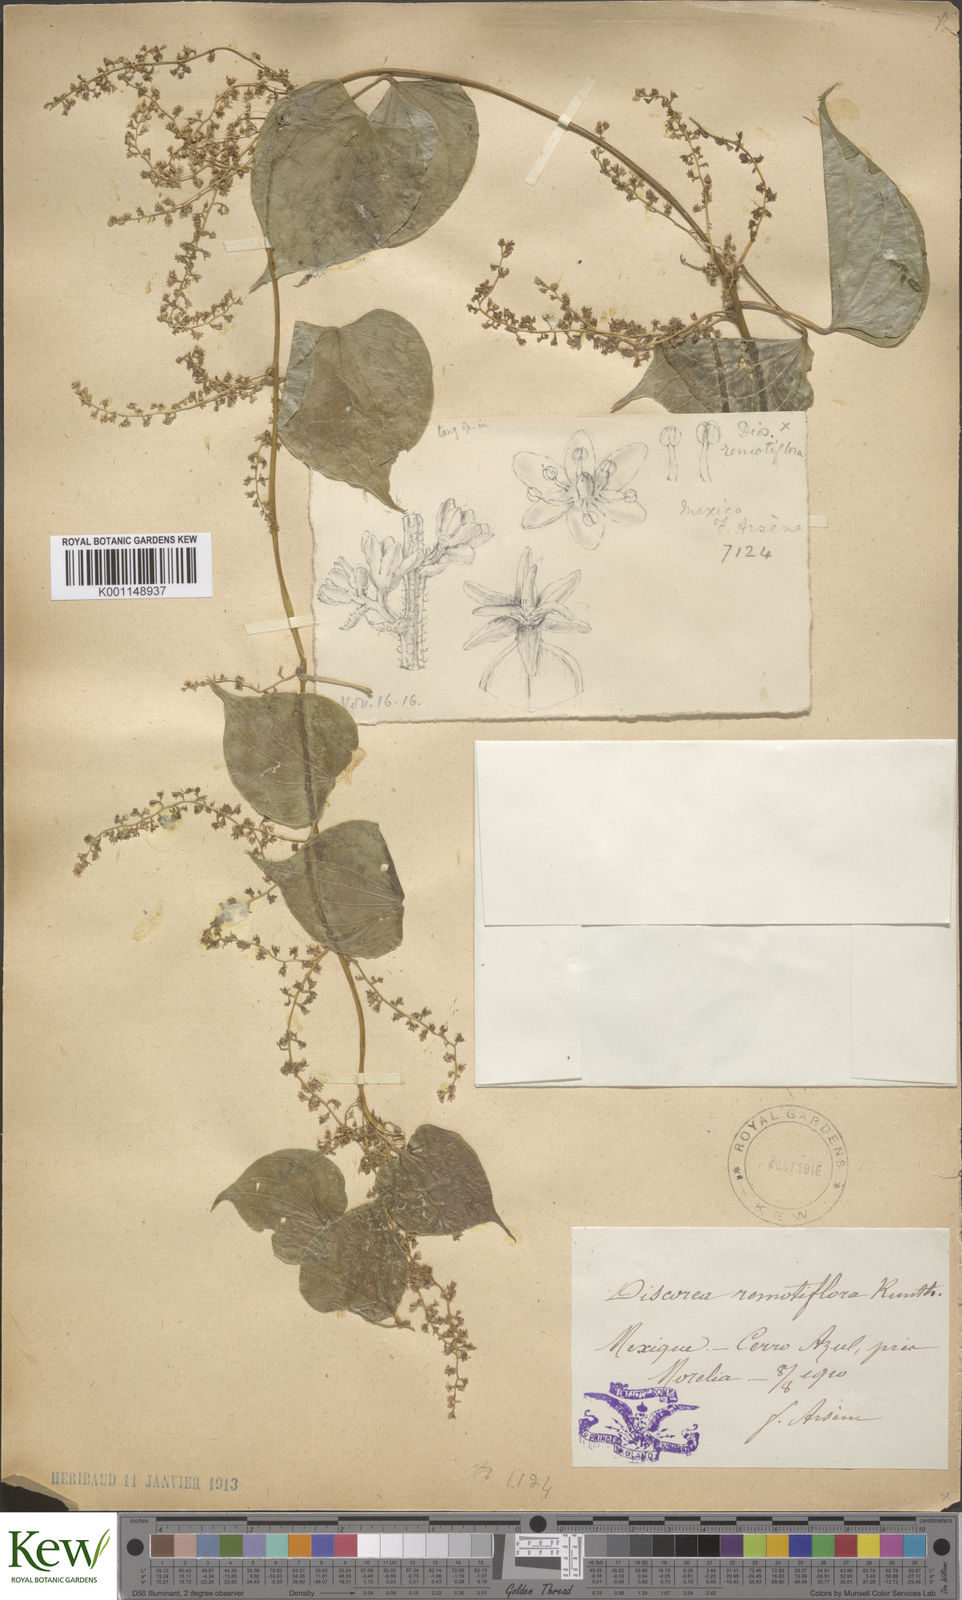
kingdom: Plantae
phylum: Tracheophyta
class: Liliopsida
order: Dioscoreales
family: Dioscoreaceae
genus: Dioscorea
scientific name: Dioscorea remotiflora
